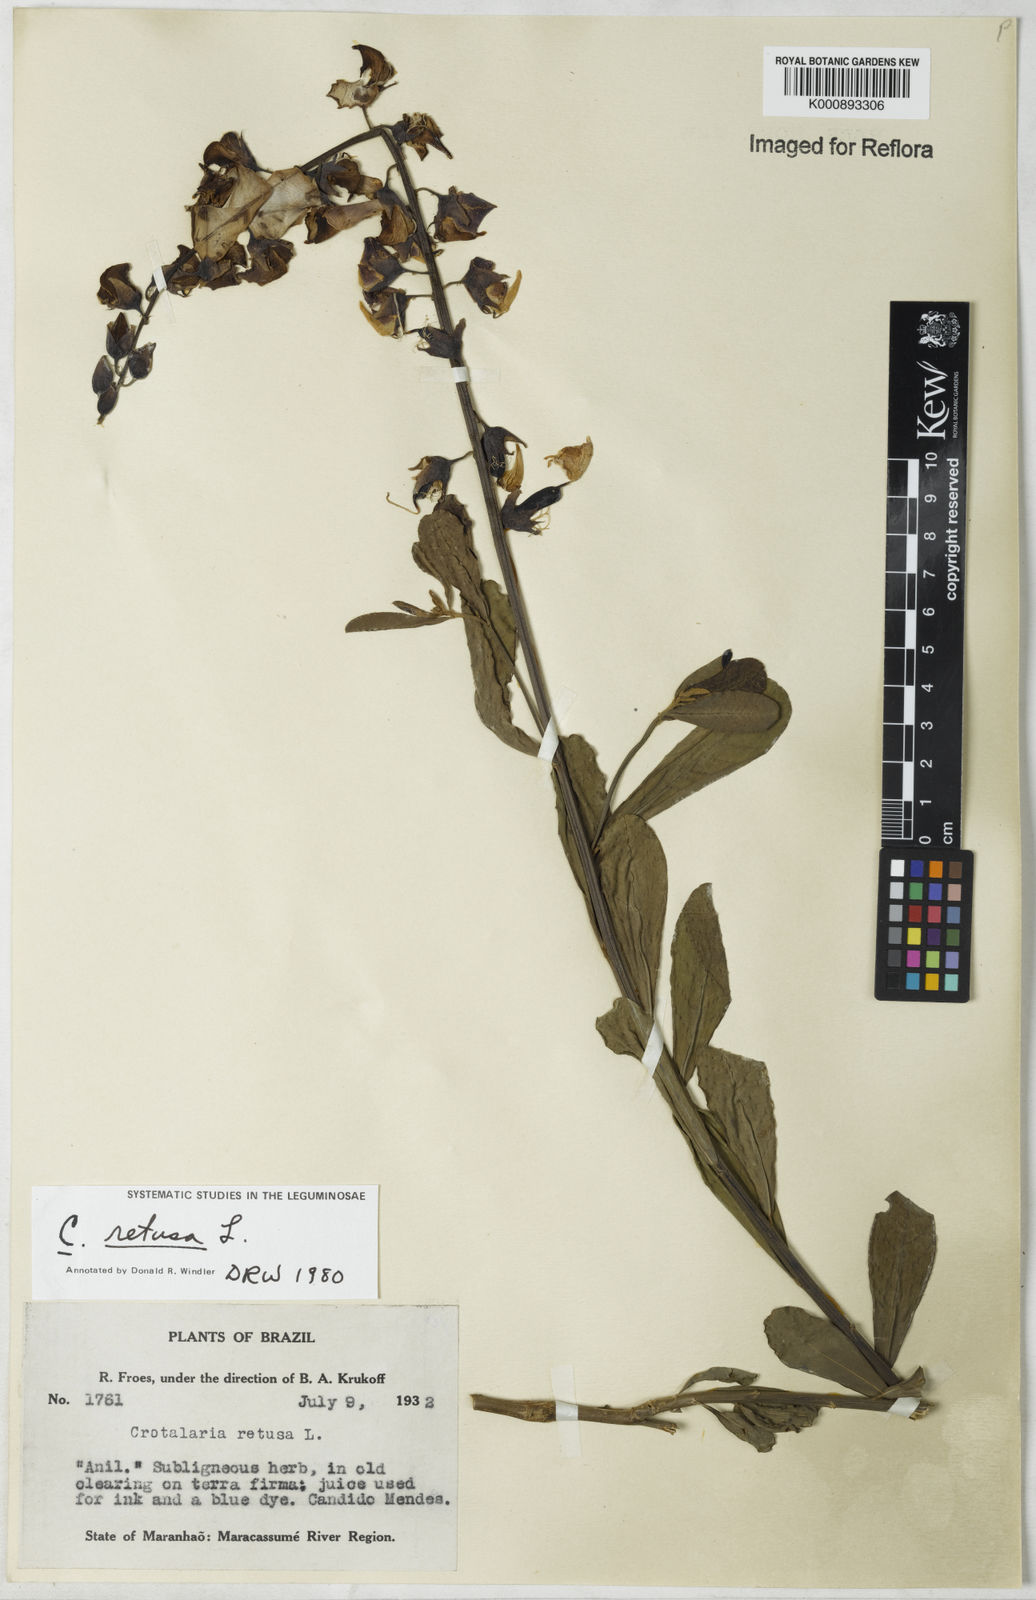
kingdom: Plantae
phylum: Tracheophyta
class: Magnoliopsida
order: Fabales
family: Fabaceae
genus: Crotalaria
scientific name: Crotalaria retusa
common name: Rattleweed
